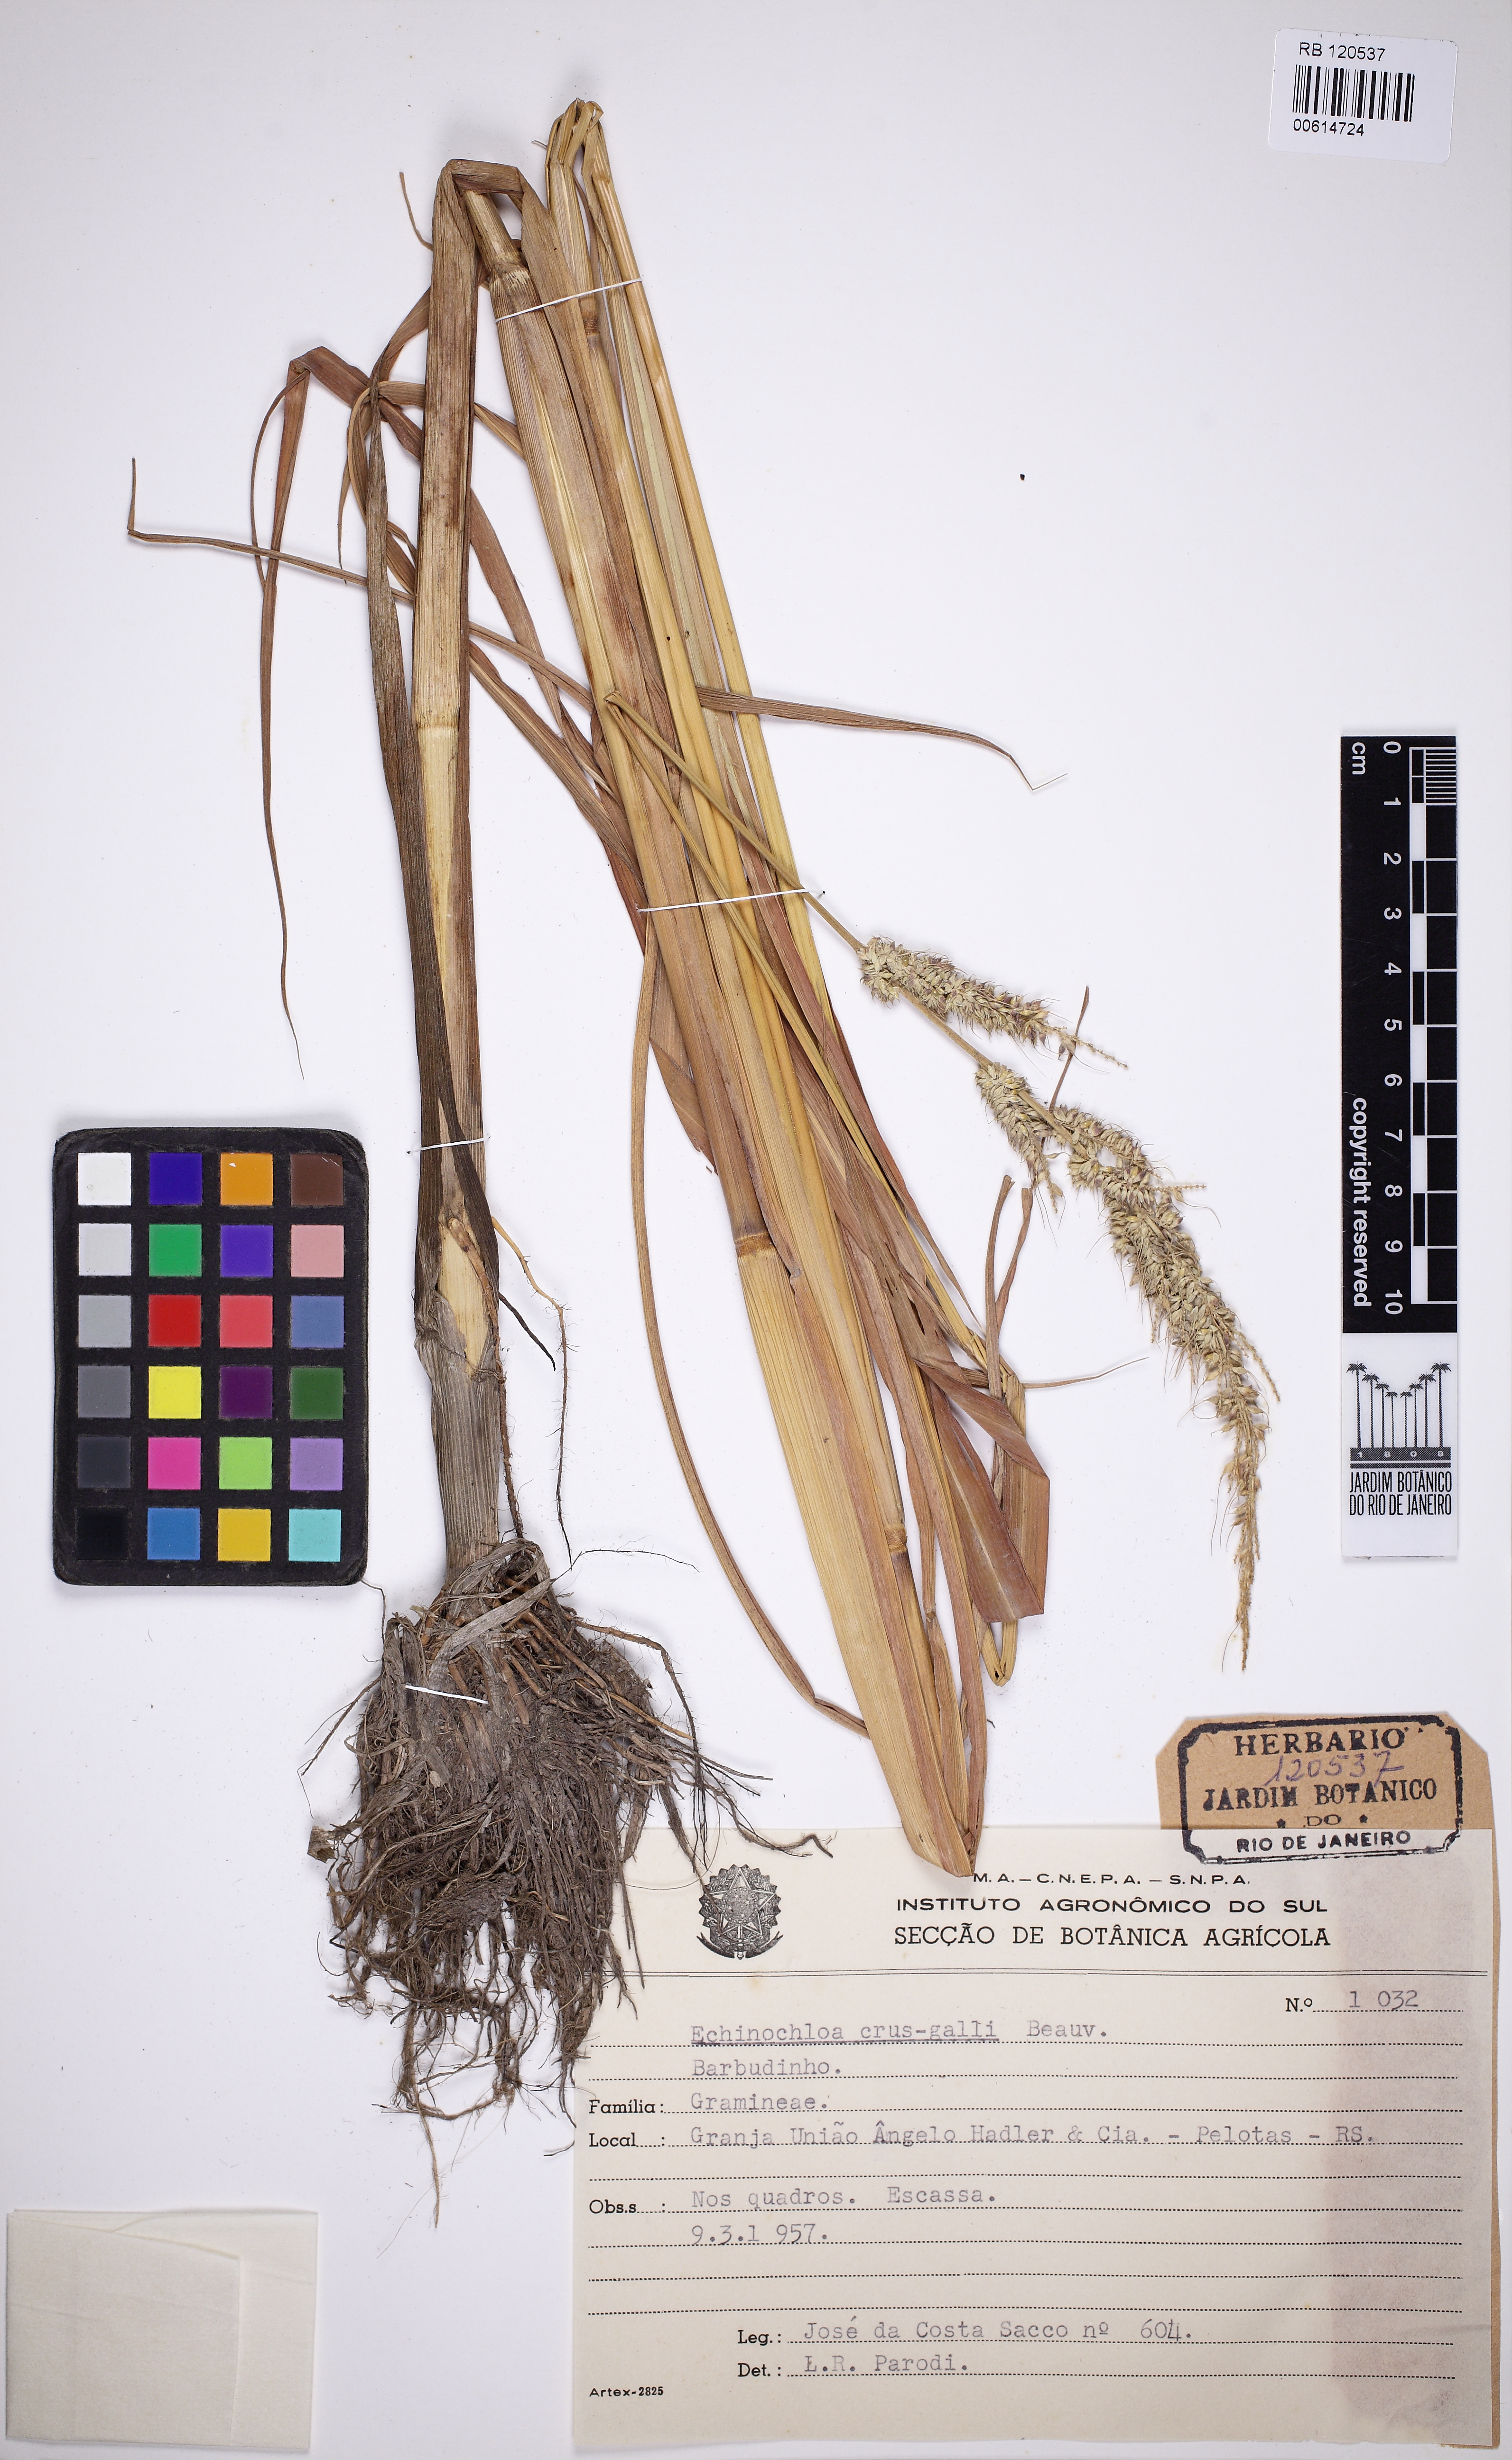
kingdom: Plantae
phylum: Tracheophyta
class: Liliopsida
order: Poales
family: Poaceae
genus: Echinochloa
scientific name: Echinochloa crus-galli
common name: Cockspur
